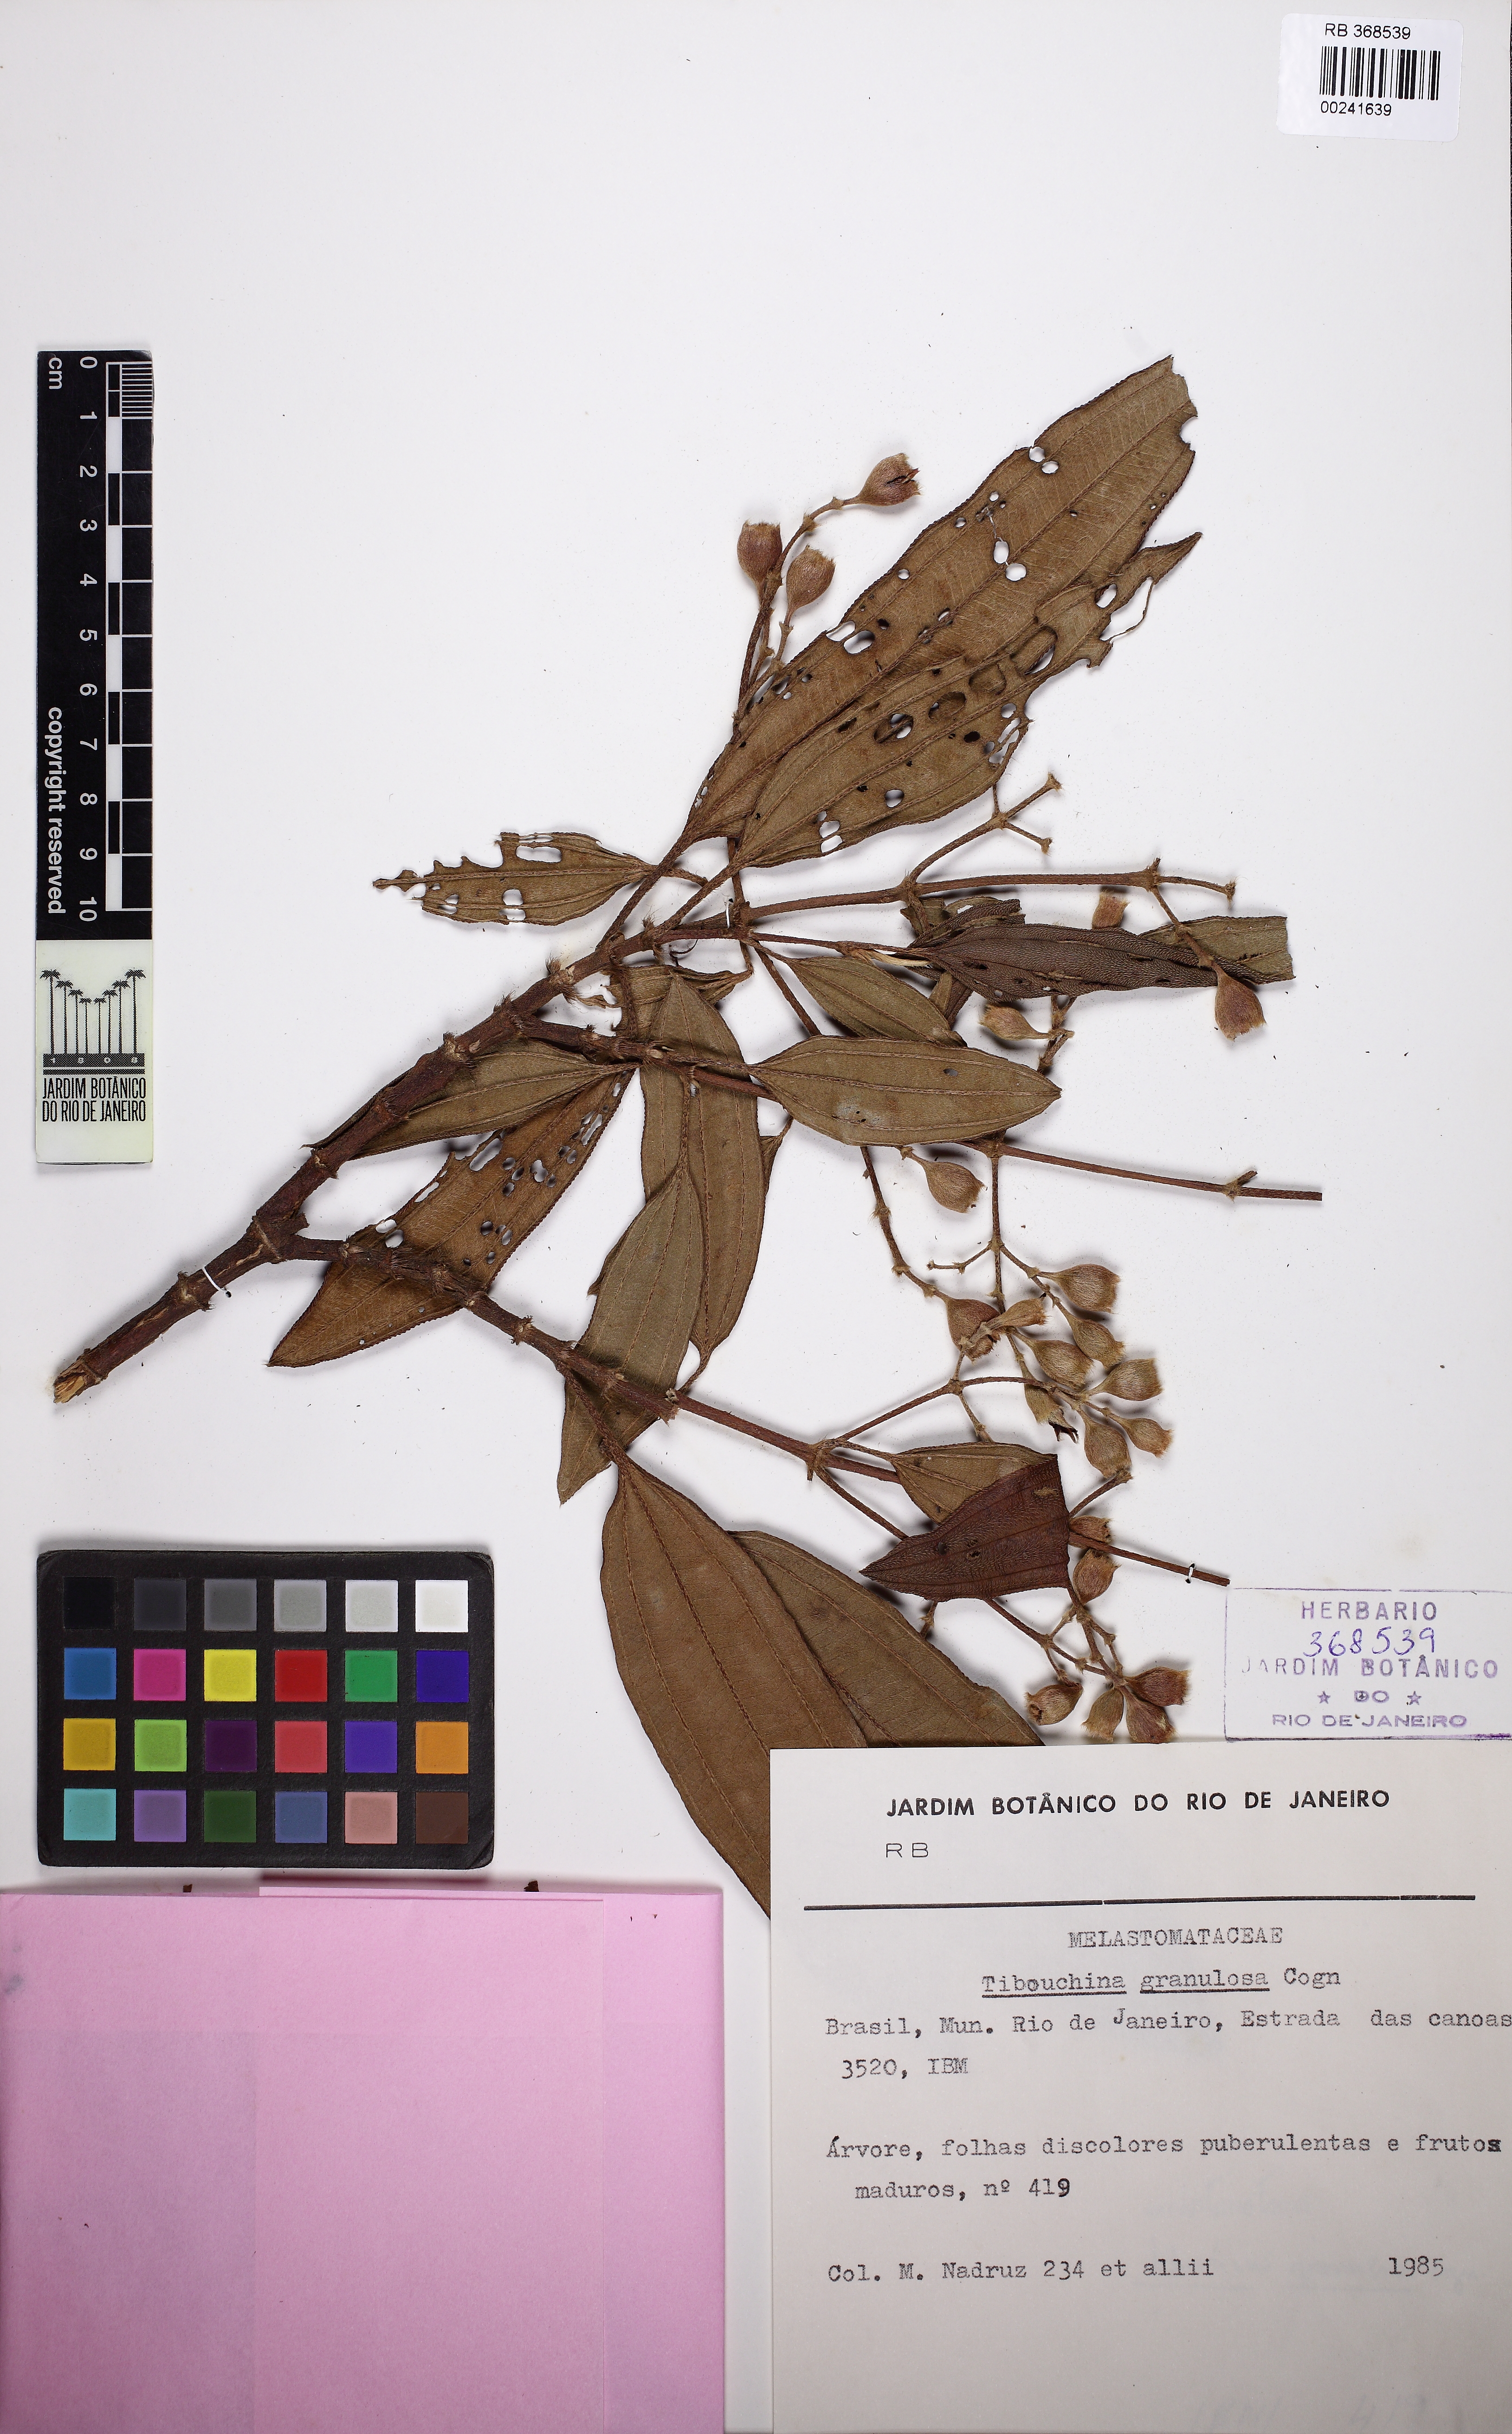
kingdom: Plantae
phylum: Tracheophyta
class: Magnoliopsida
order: Myrtales
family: Melastomataceae
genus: Pleroma
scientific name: Pleroma granulosum
